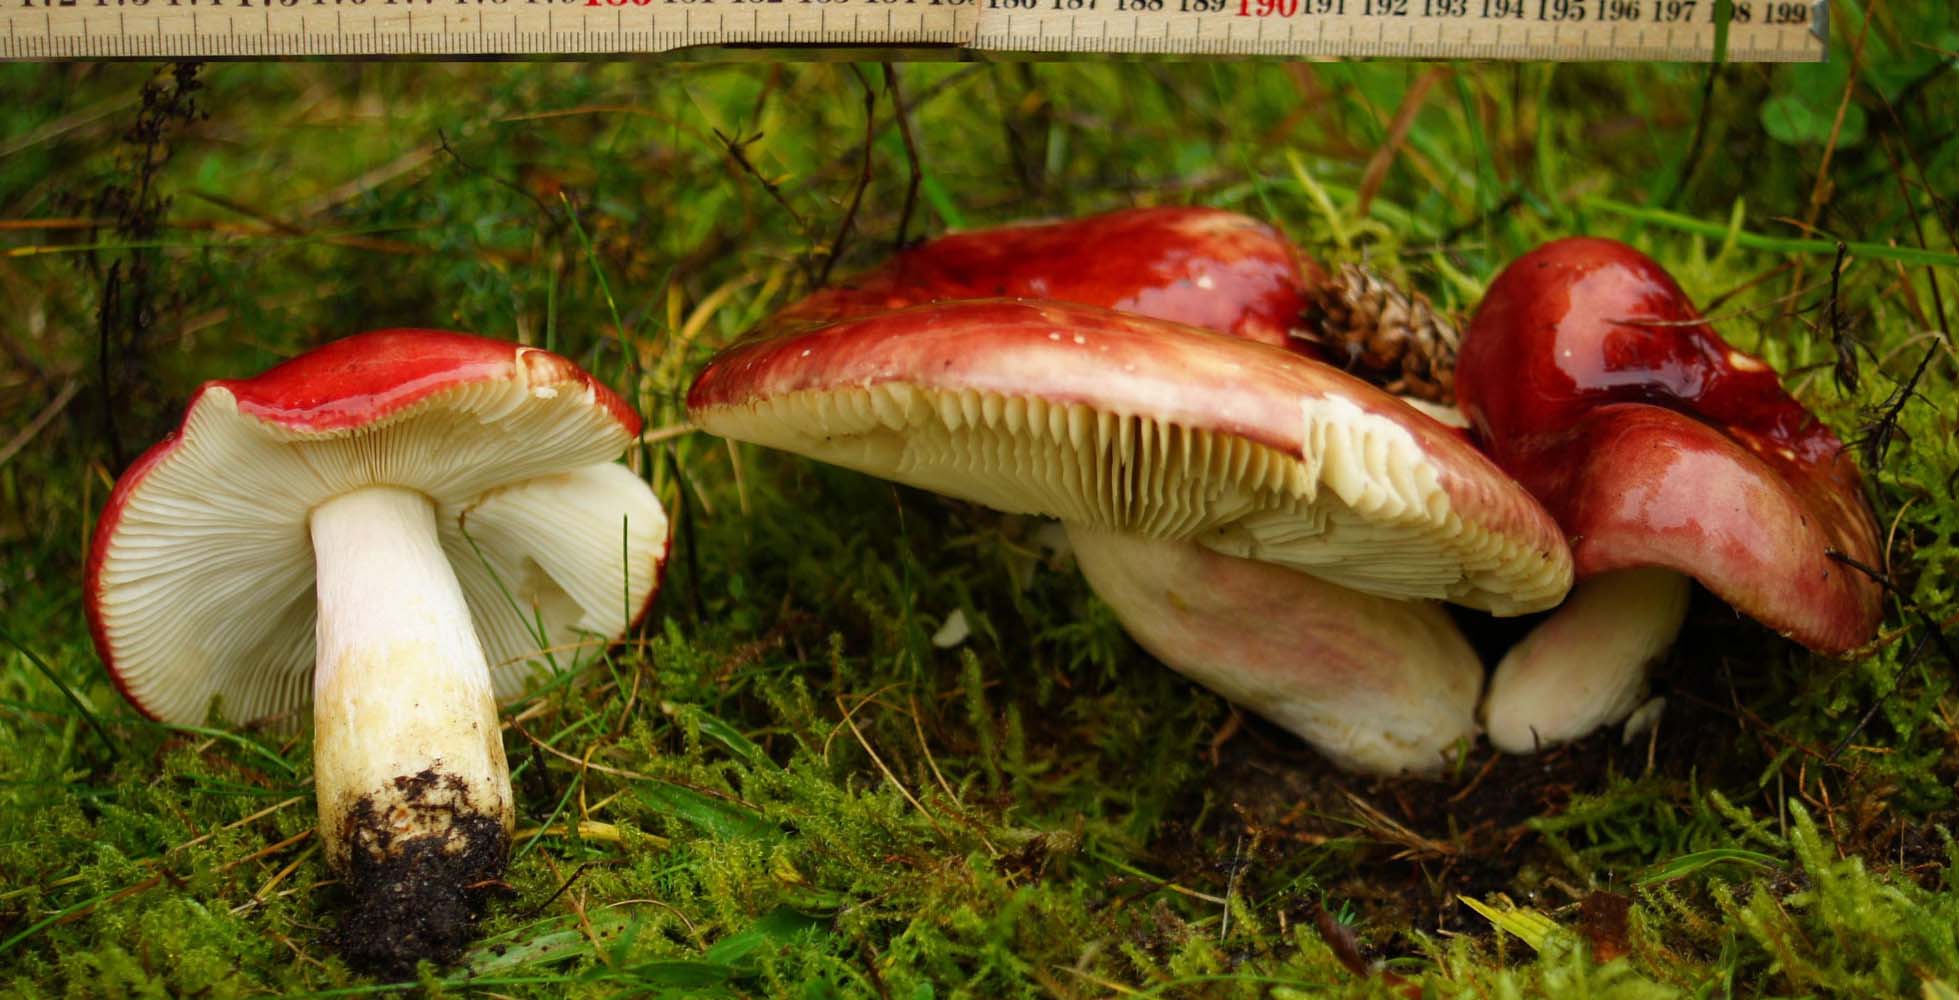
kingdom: Fungi
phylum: Basidiomycota
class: Agaricomycetes
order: Russulales
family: Russulaceae
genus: Russula
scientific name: Russula xerampelina
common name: hummer-skørhat
